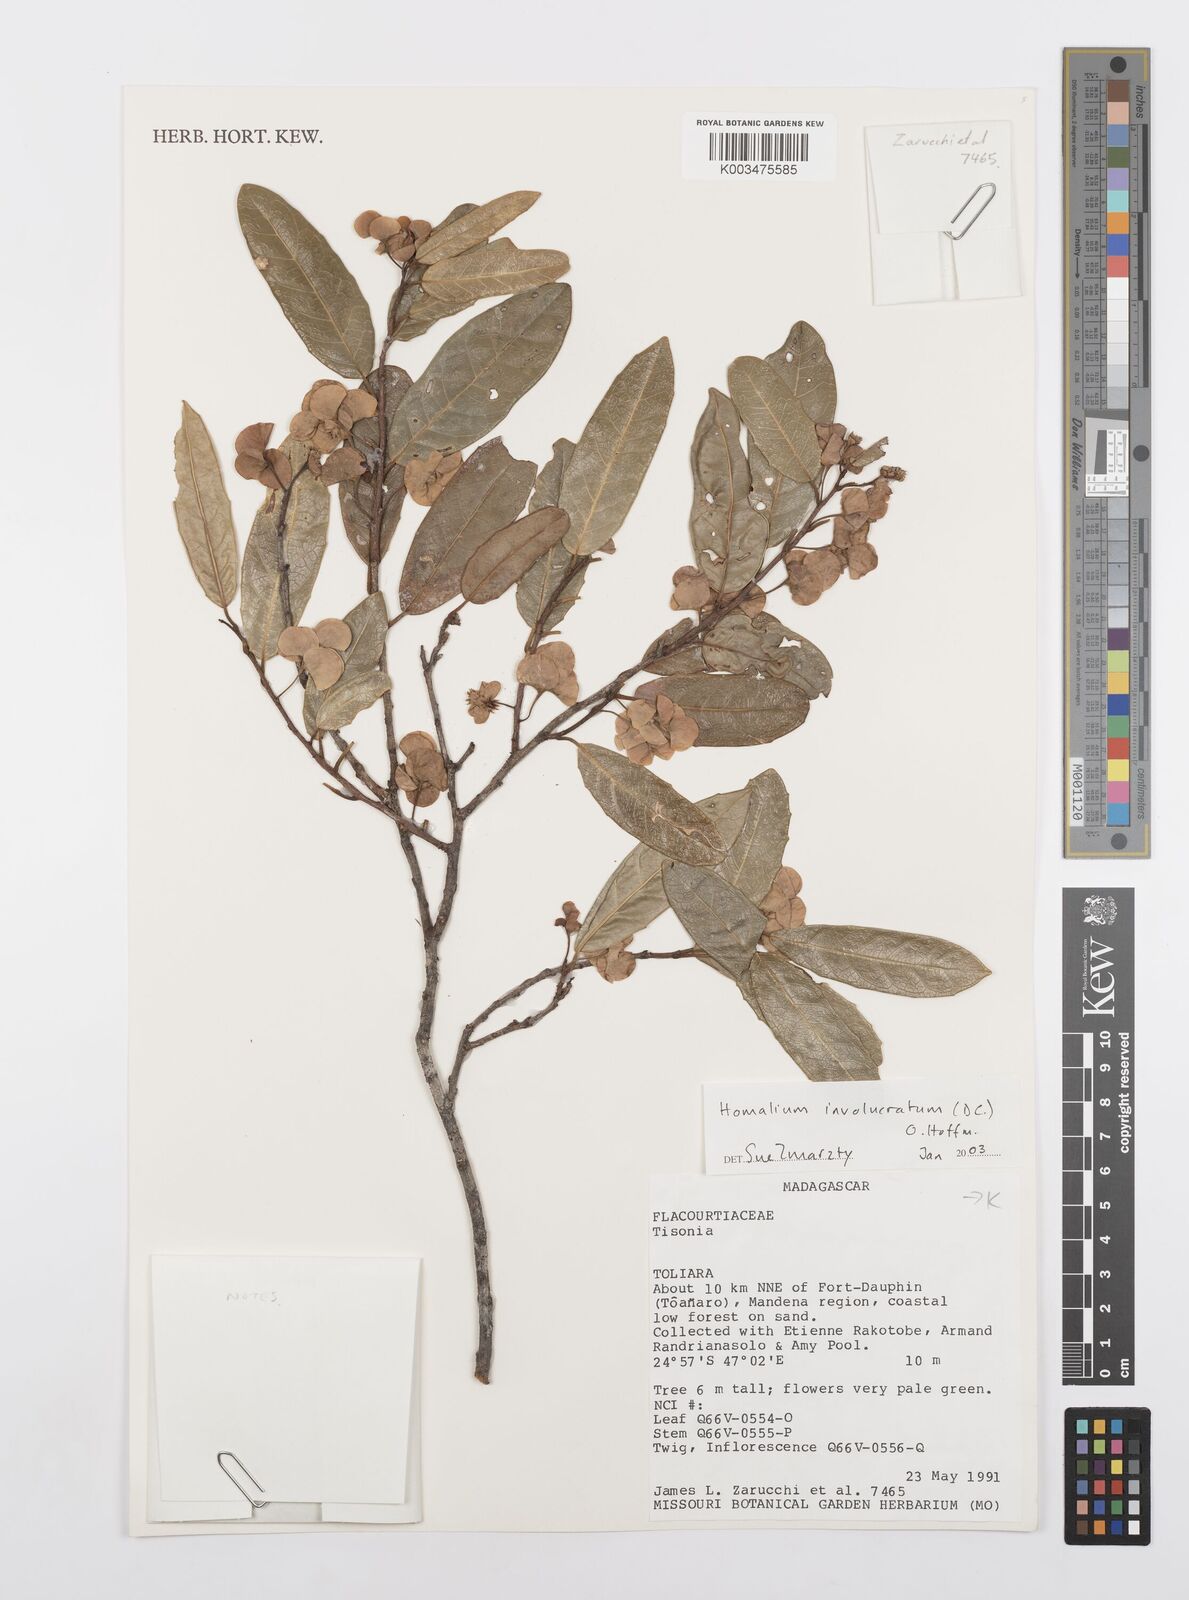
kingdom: Plantae
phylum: Tracheophyta
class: Magnoliopsida
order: Malpighiales
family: Salicaceae
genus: Homalium
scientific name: Homalium involucratum
